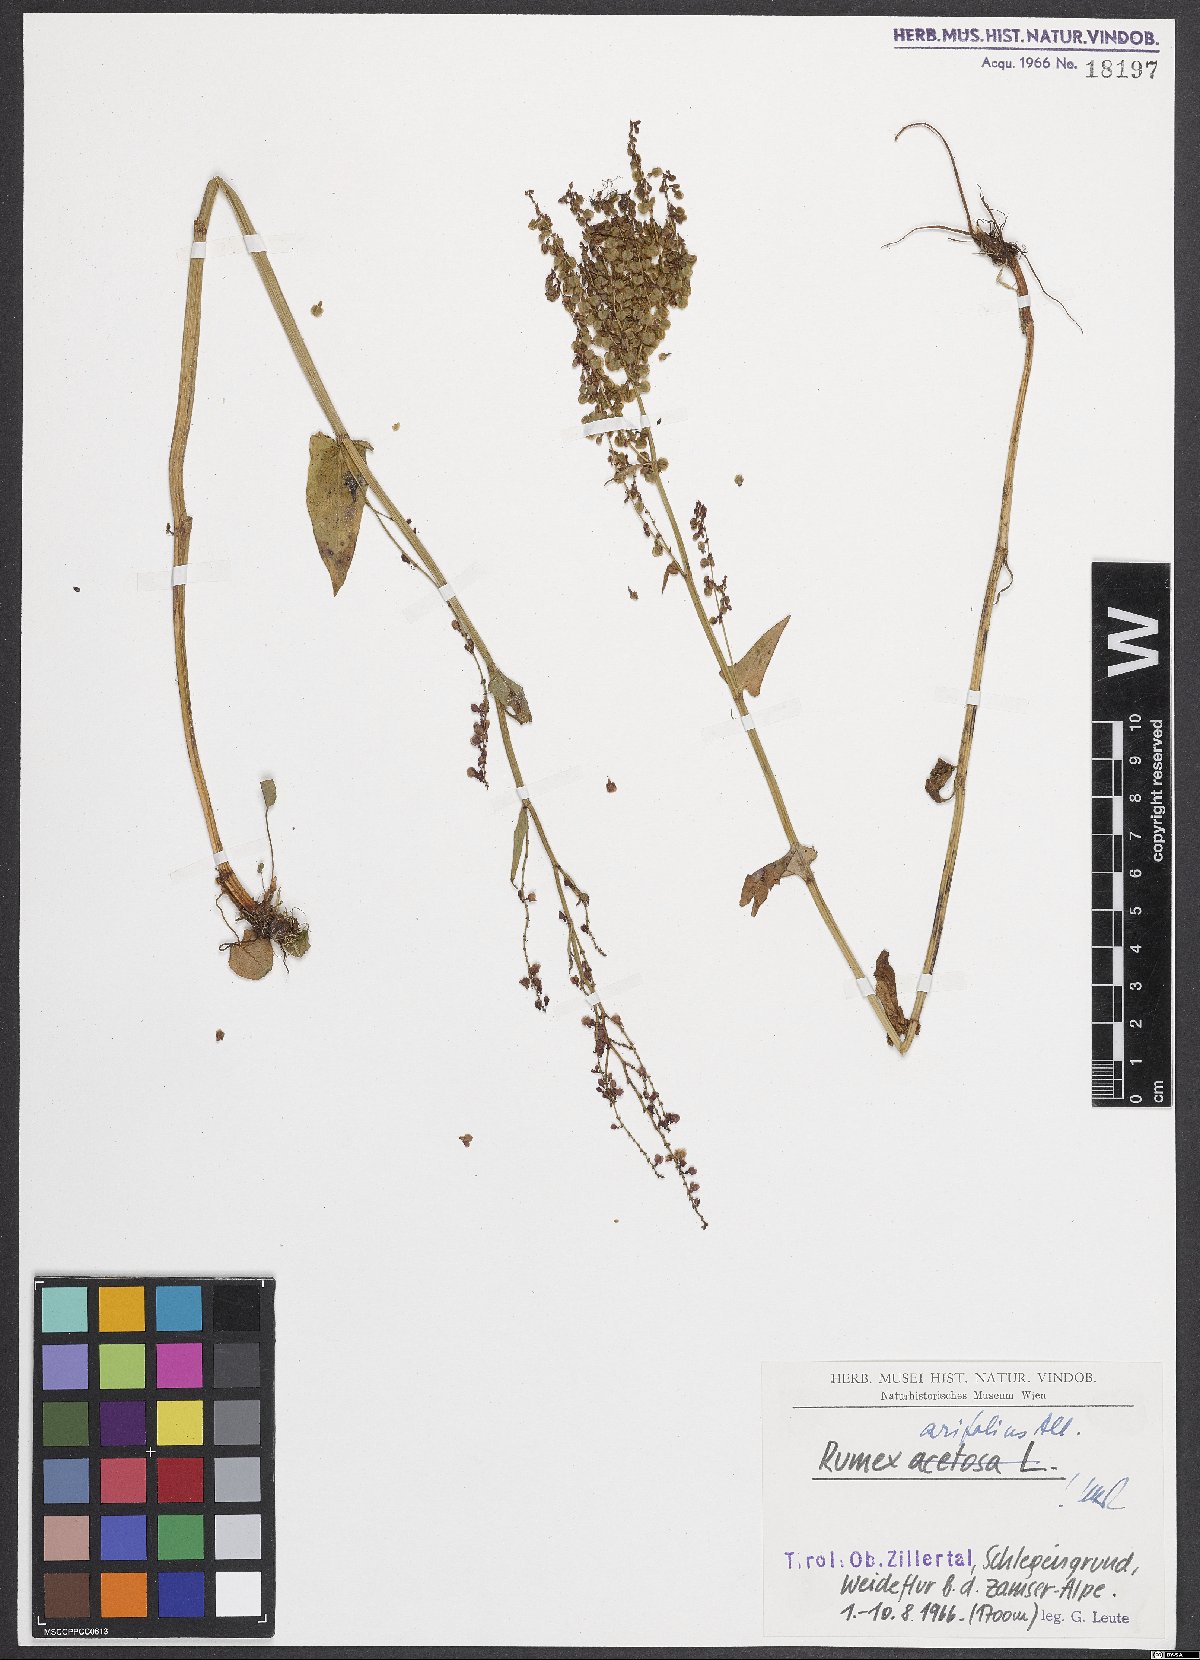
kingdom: Plantae
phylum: Tracheophyta
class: Magnoliopsida
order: Caryophyllales
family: Polygonaceae
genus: Rumex
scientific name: Rumex arifolius
